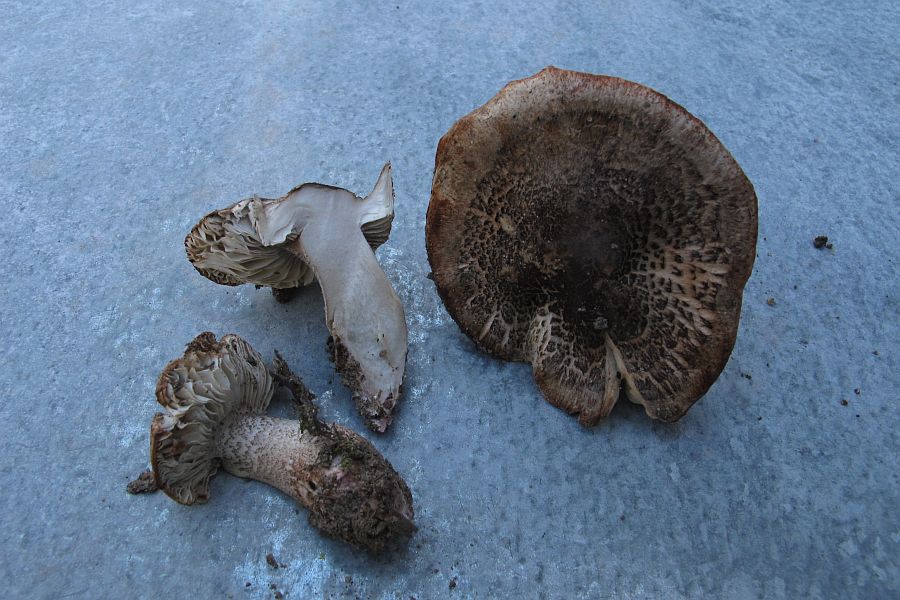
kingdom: Fungi
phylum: Basidiomycota
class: Agaricomycetes
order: Agaricales
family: Tricholomataceae
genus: Tricholoma
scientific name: Tricholoma basirubens
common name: rødfodet ridderhat
